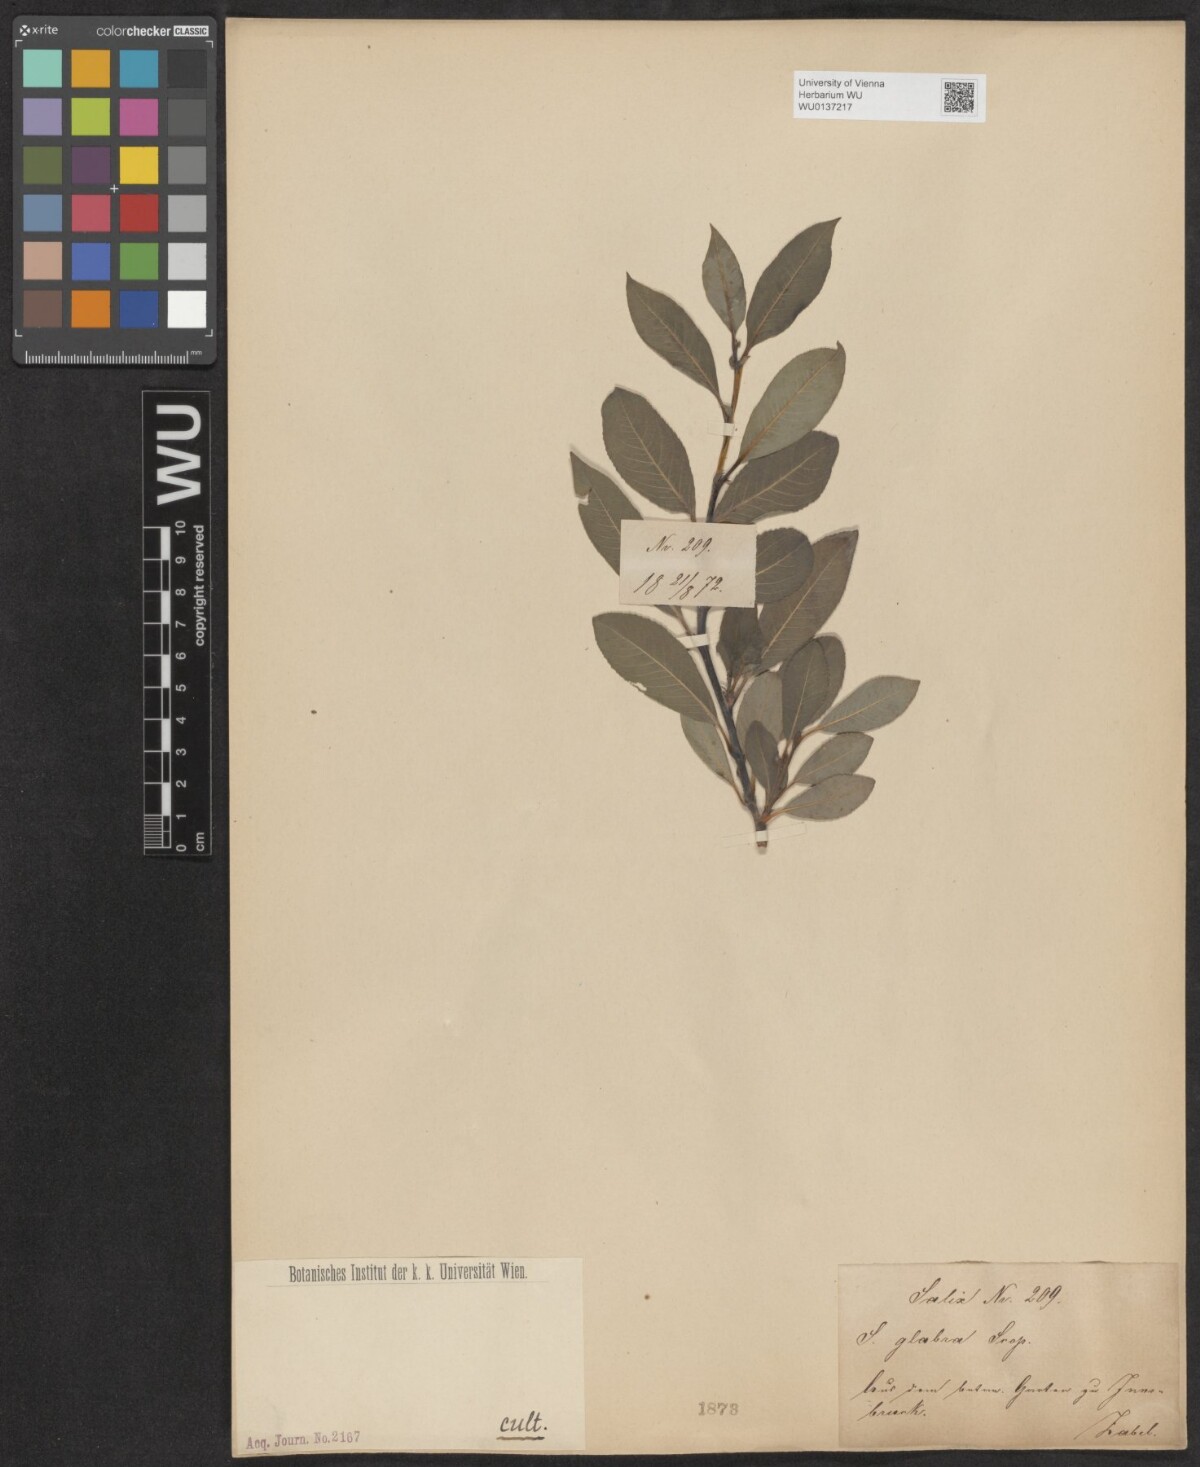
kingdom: Plantae
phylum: Tracheophyta
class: Magnoliopsida
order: Malpighiales
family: Salicaceae
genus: Salix
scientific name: Salix glabra
